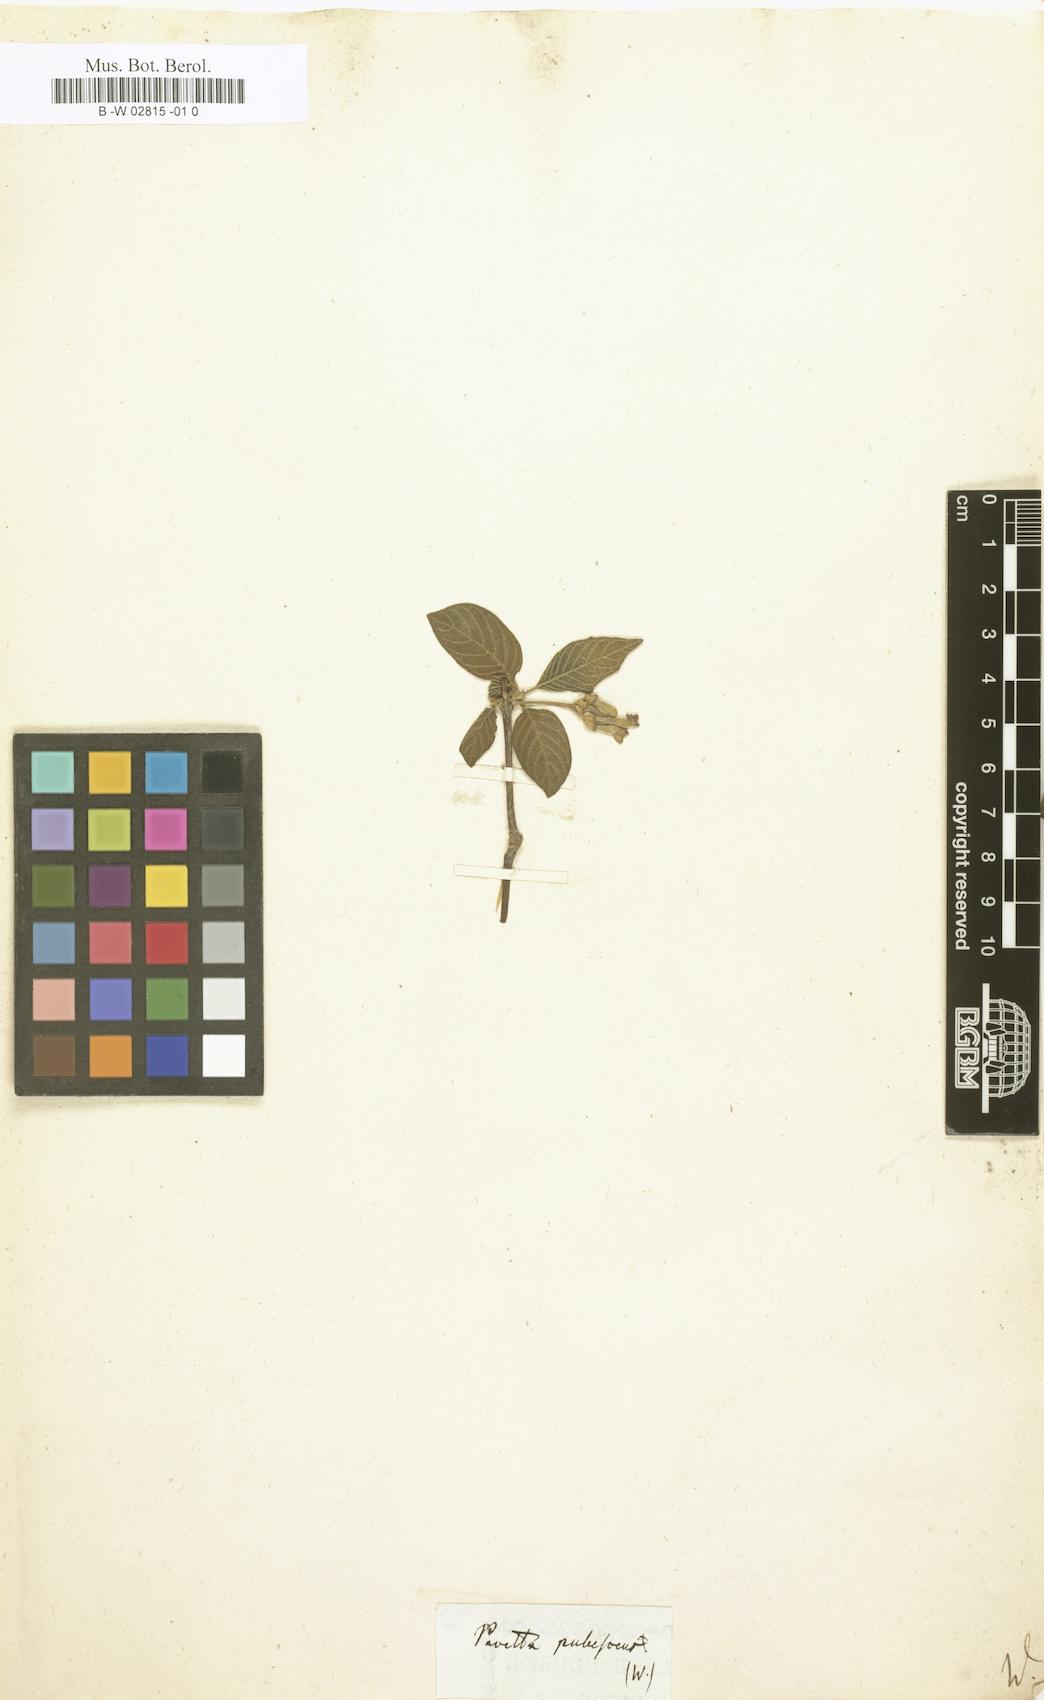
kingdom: Plantae
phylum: Tracheophyta
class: Magnoliopsida
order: Gentianales
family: Rubiaceae
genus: Tarenna
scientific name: Tarenna bartlingii
